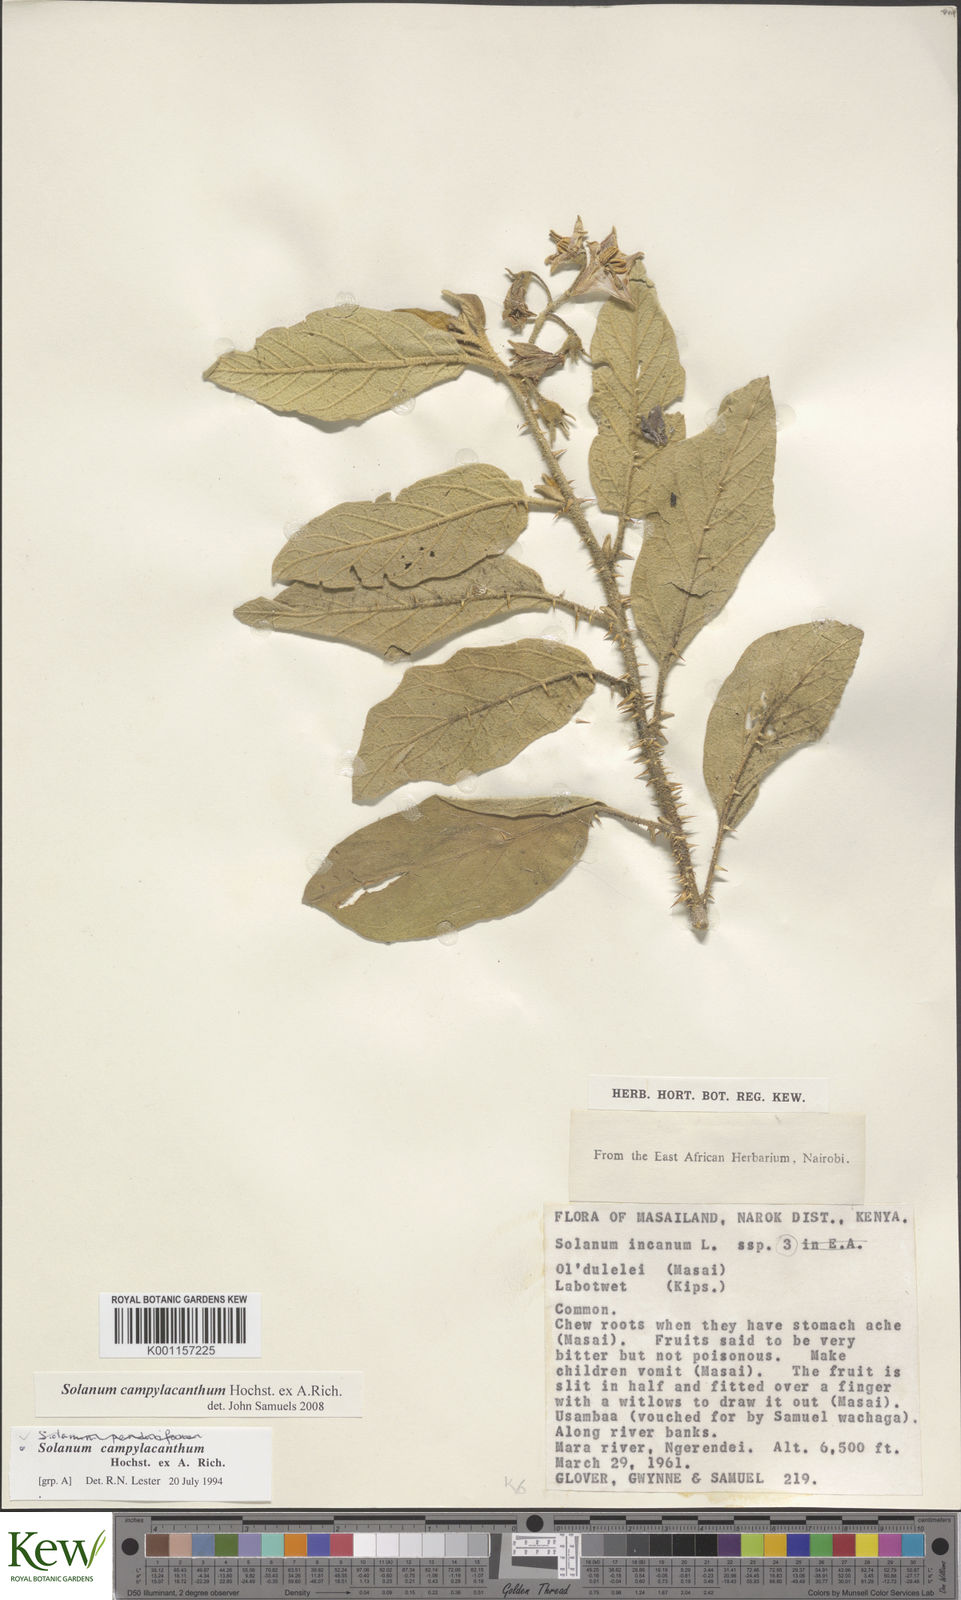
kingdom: Plantae
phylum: Tracheophyta
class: Magnoliopsida
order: Solanales
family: Solanaceae
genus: Solanum
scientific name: Solanum campylacanthum
